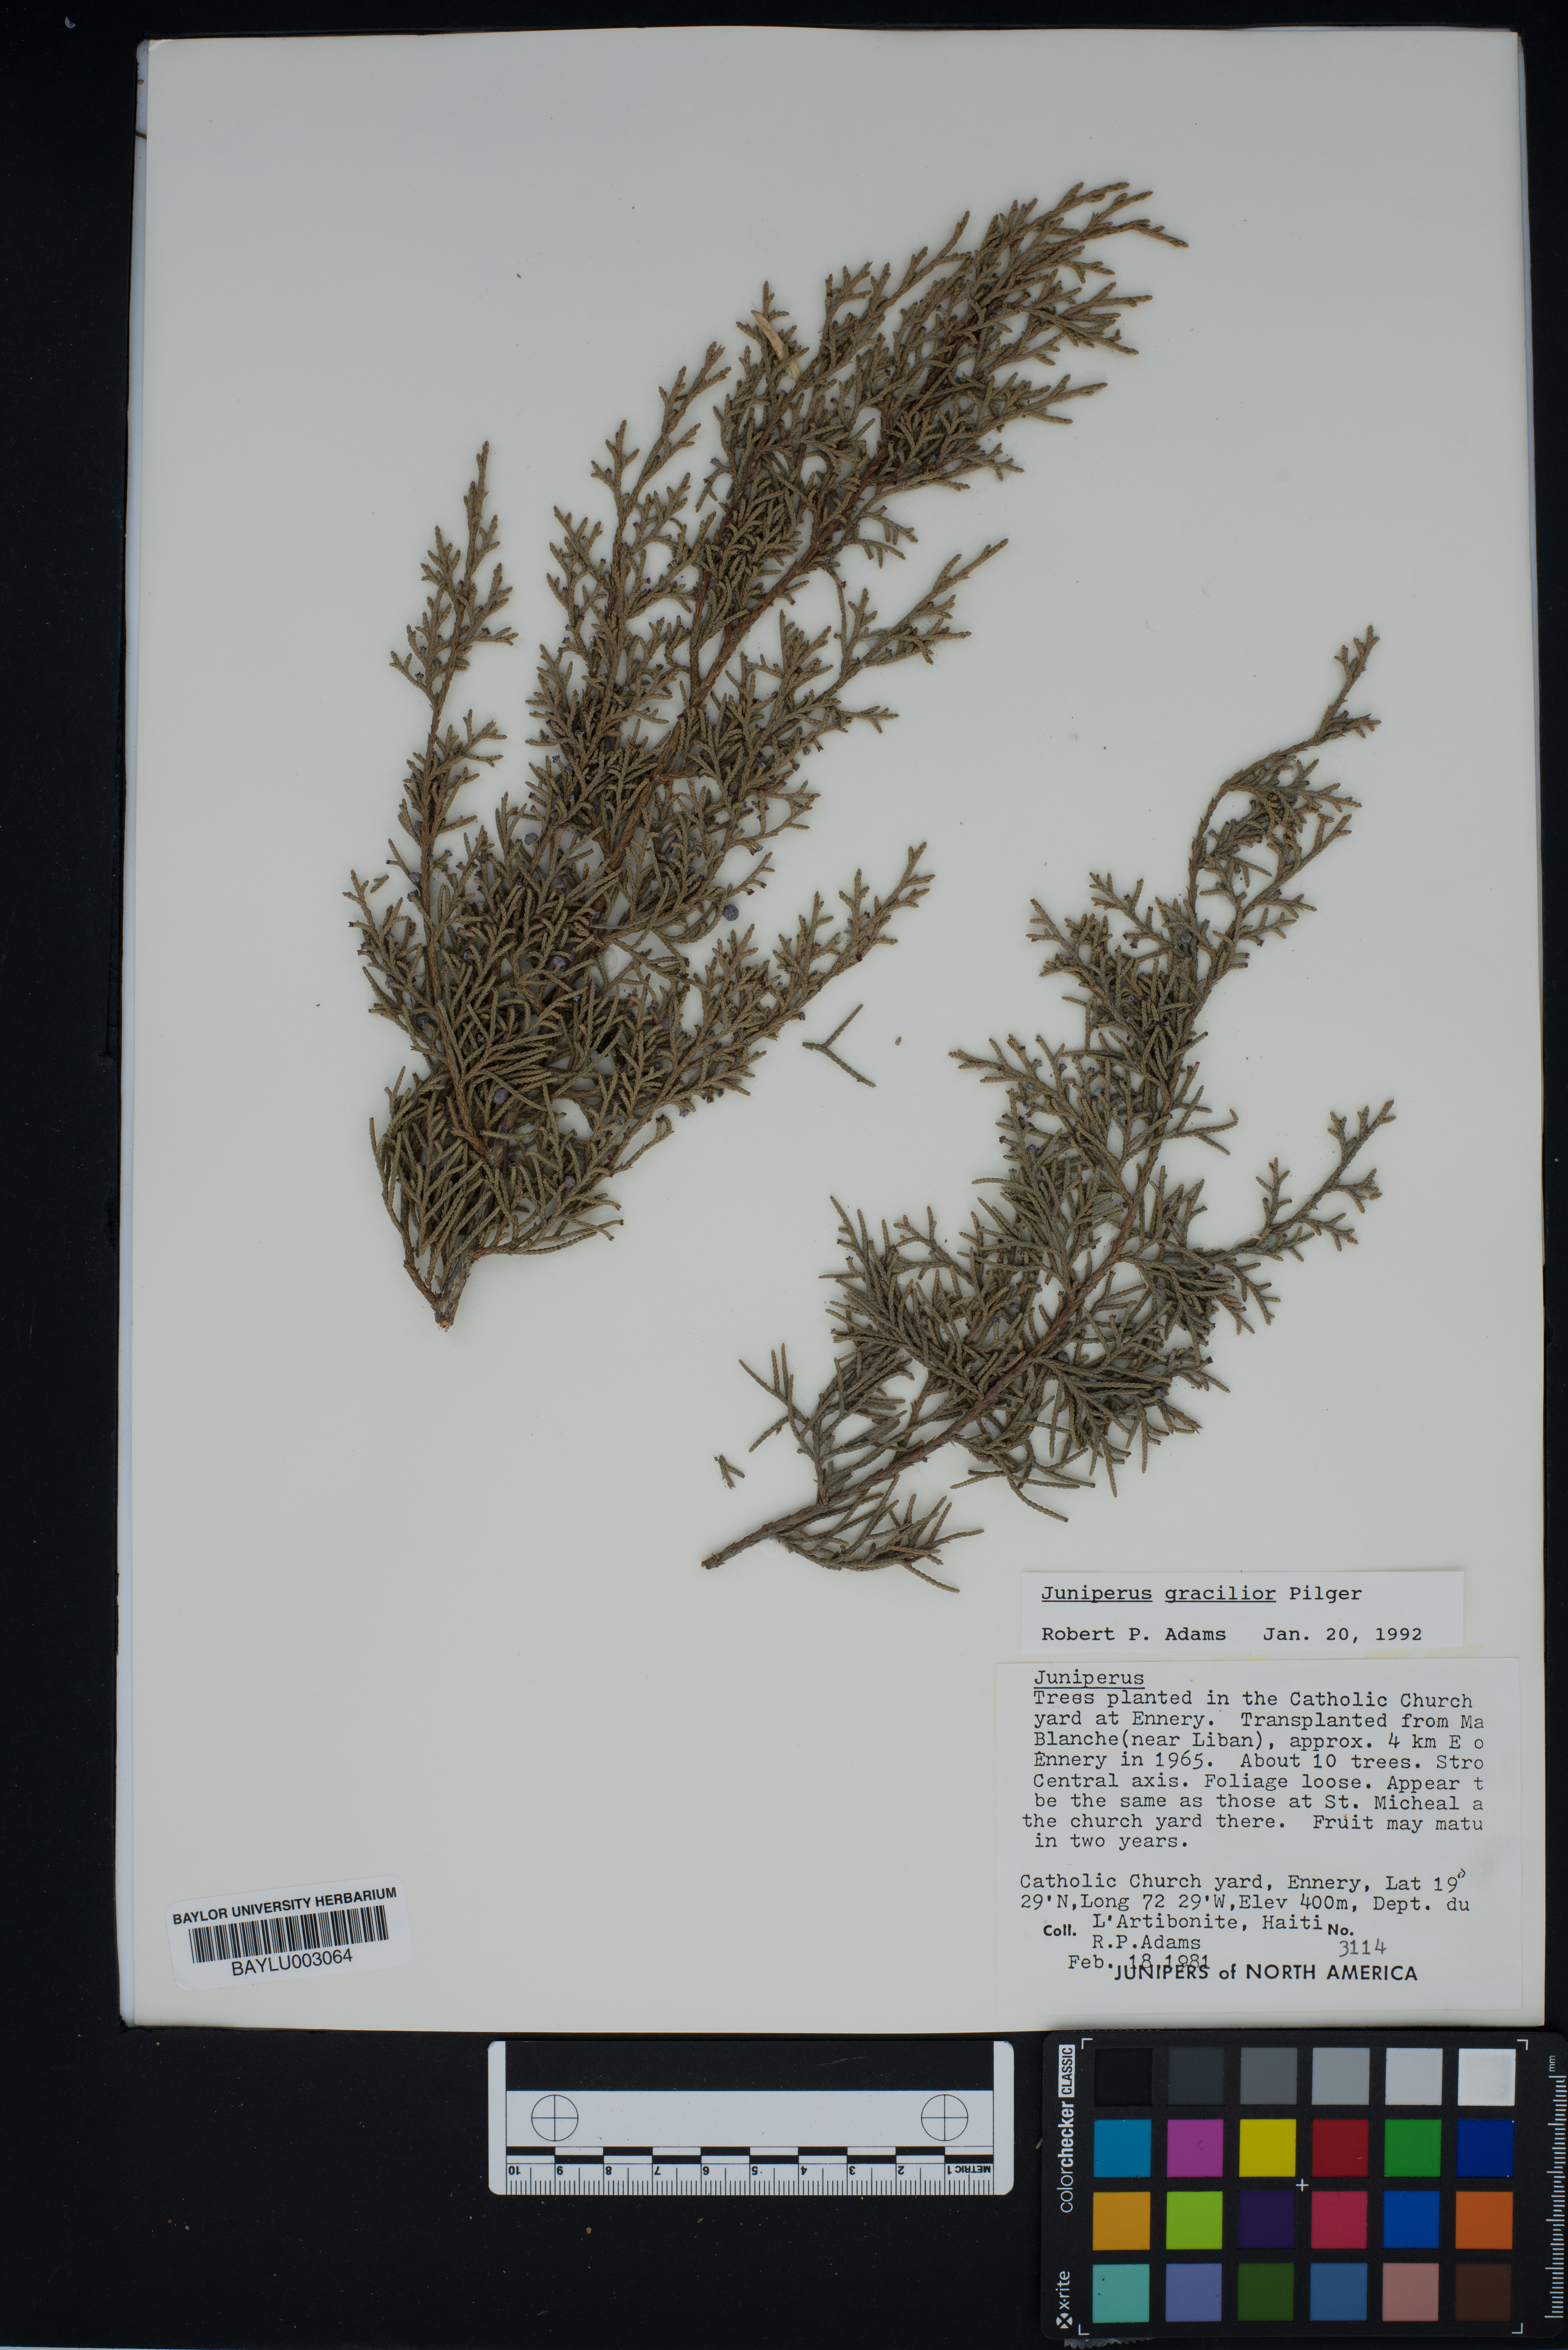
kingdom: Plantae
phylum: Tracheophyta
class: Pinopsida
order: Pinales
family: Cupressaceae
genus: Juniperus
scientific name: Juniperus gracilior
